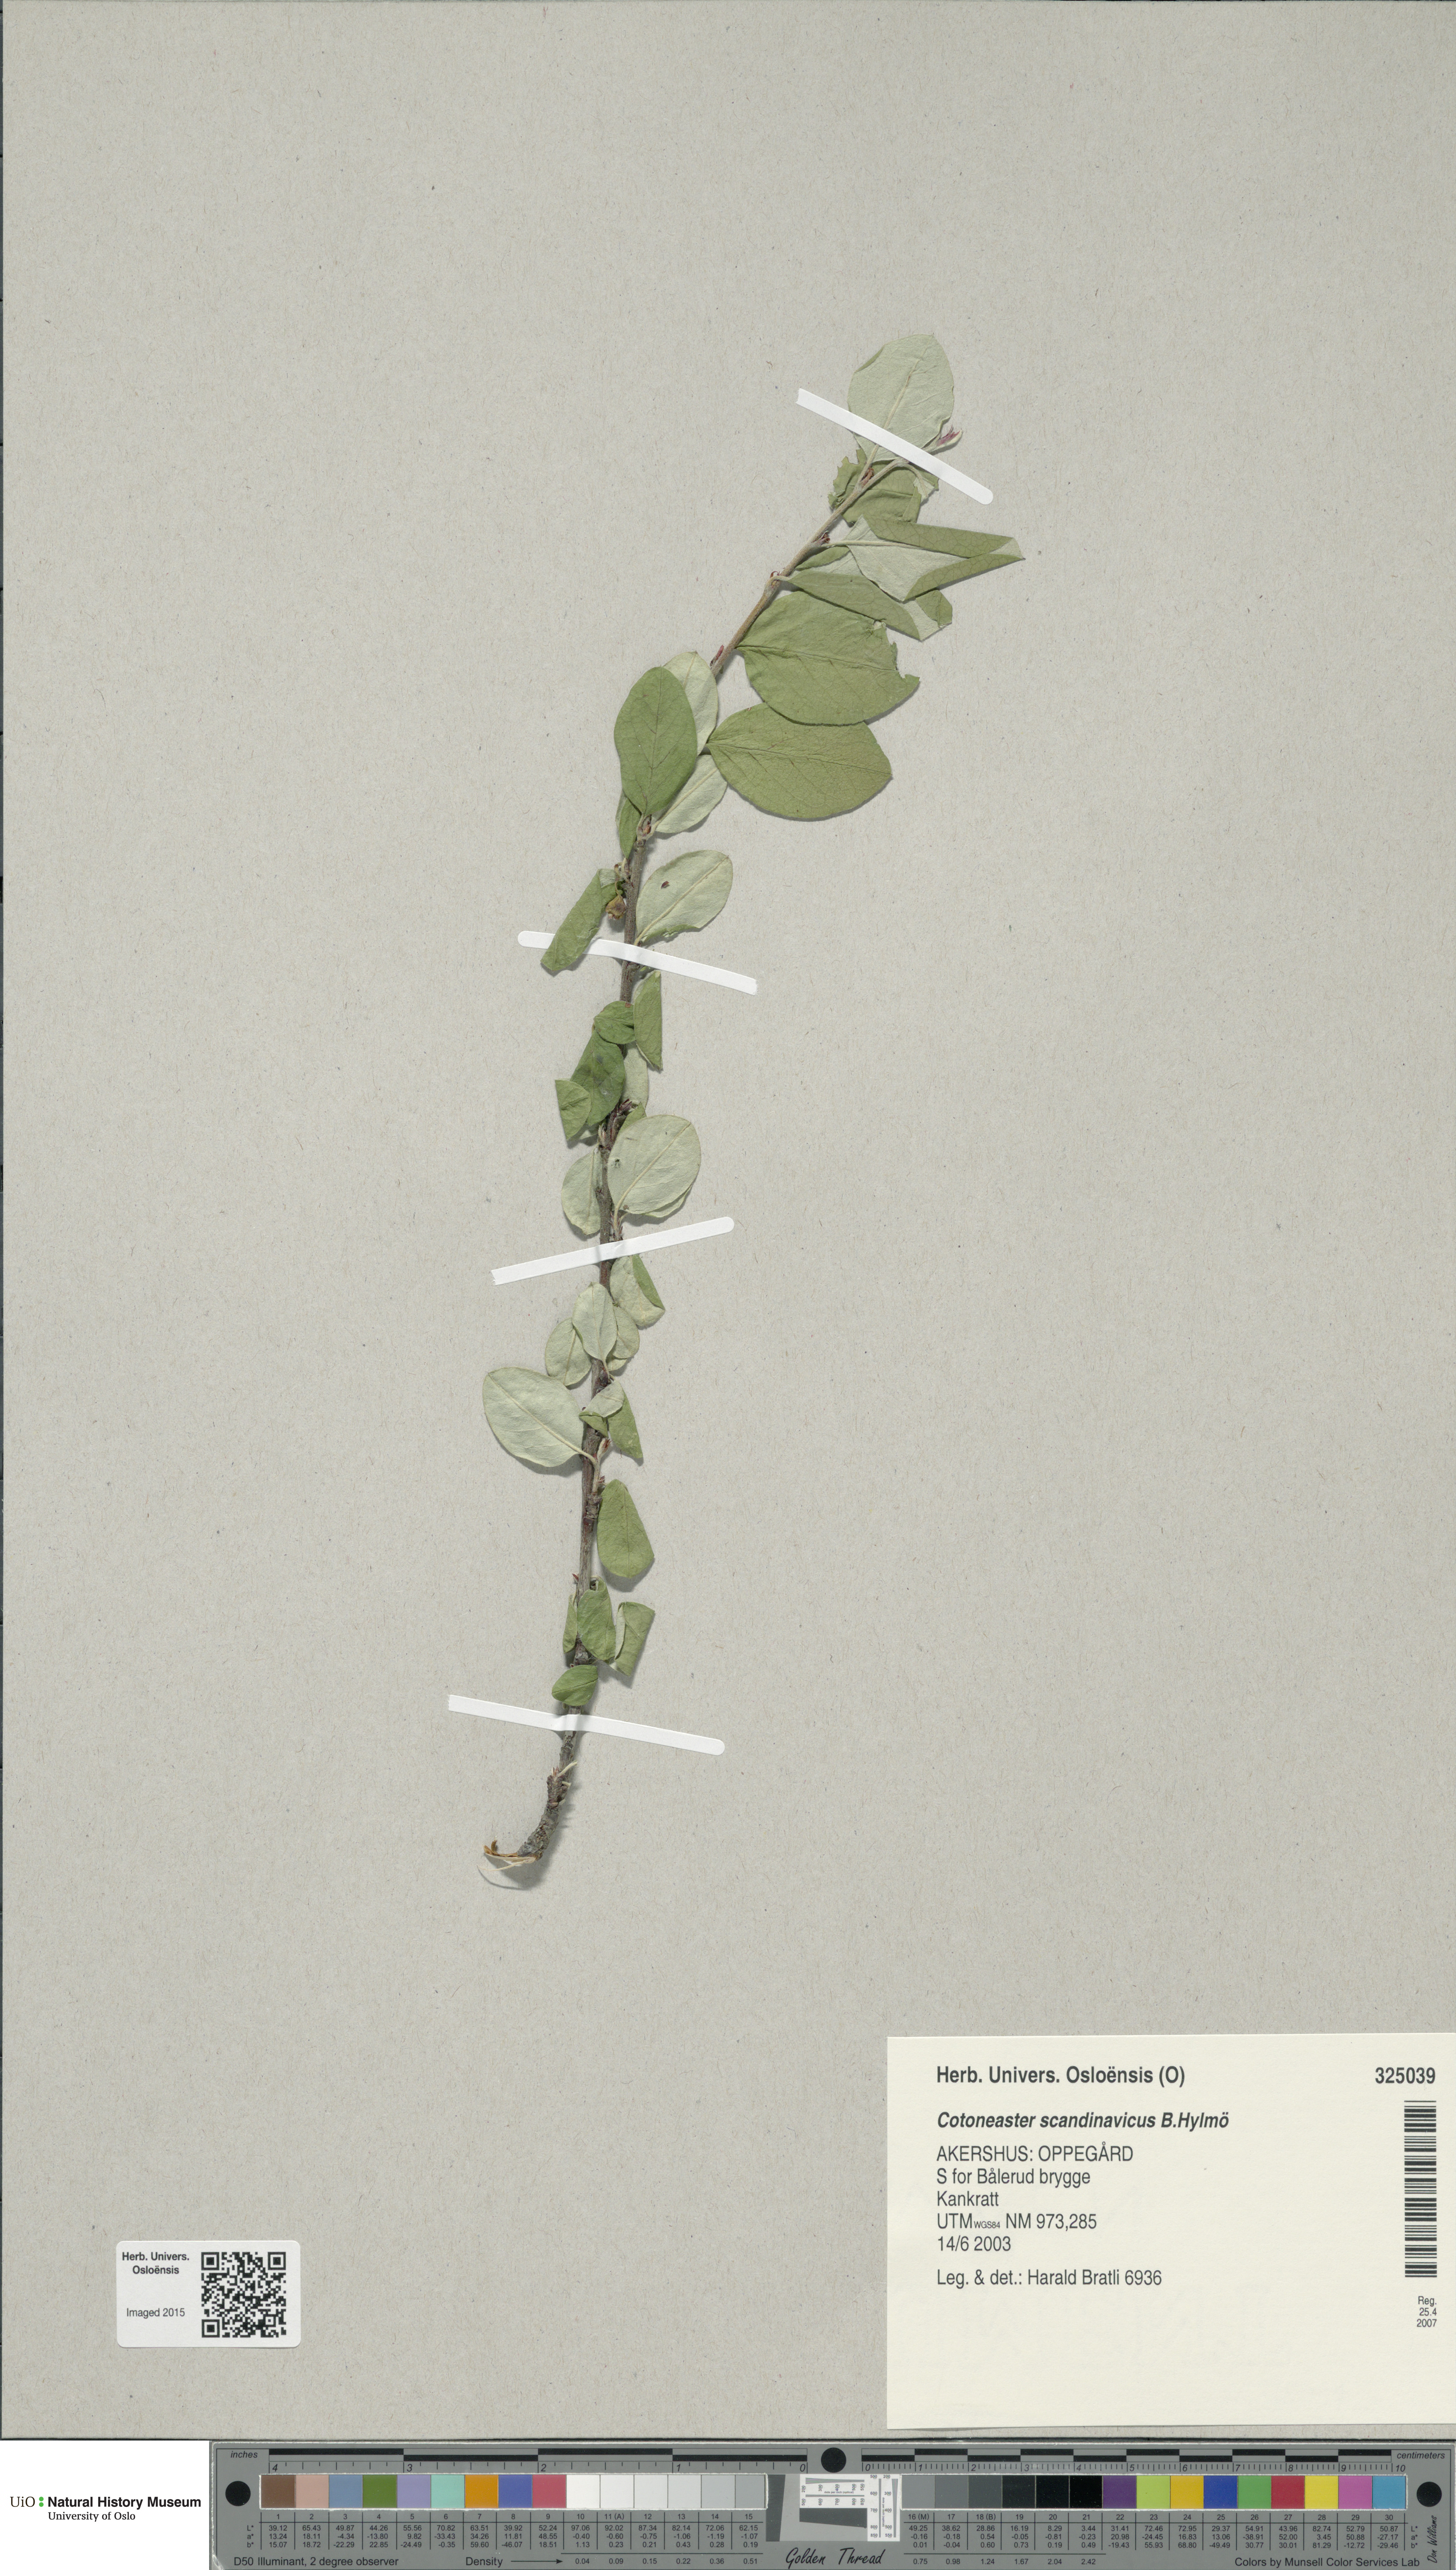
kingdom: Plantae
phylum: Tracheophyta
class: Magnoliopsida
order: Rosales
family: Rosaceae
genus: Cotoneaster
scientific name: Cotoneaster integerrimus
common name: Wild cotoneaster
